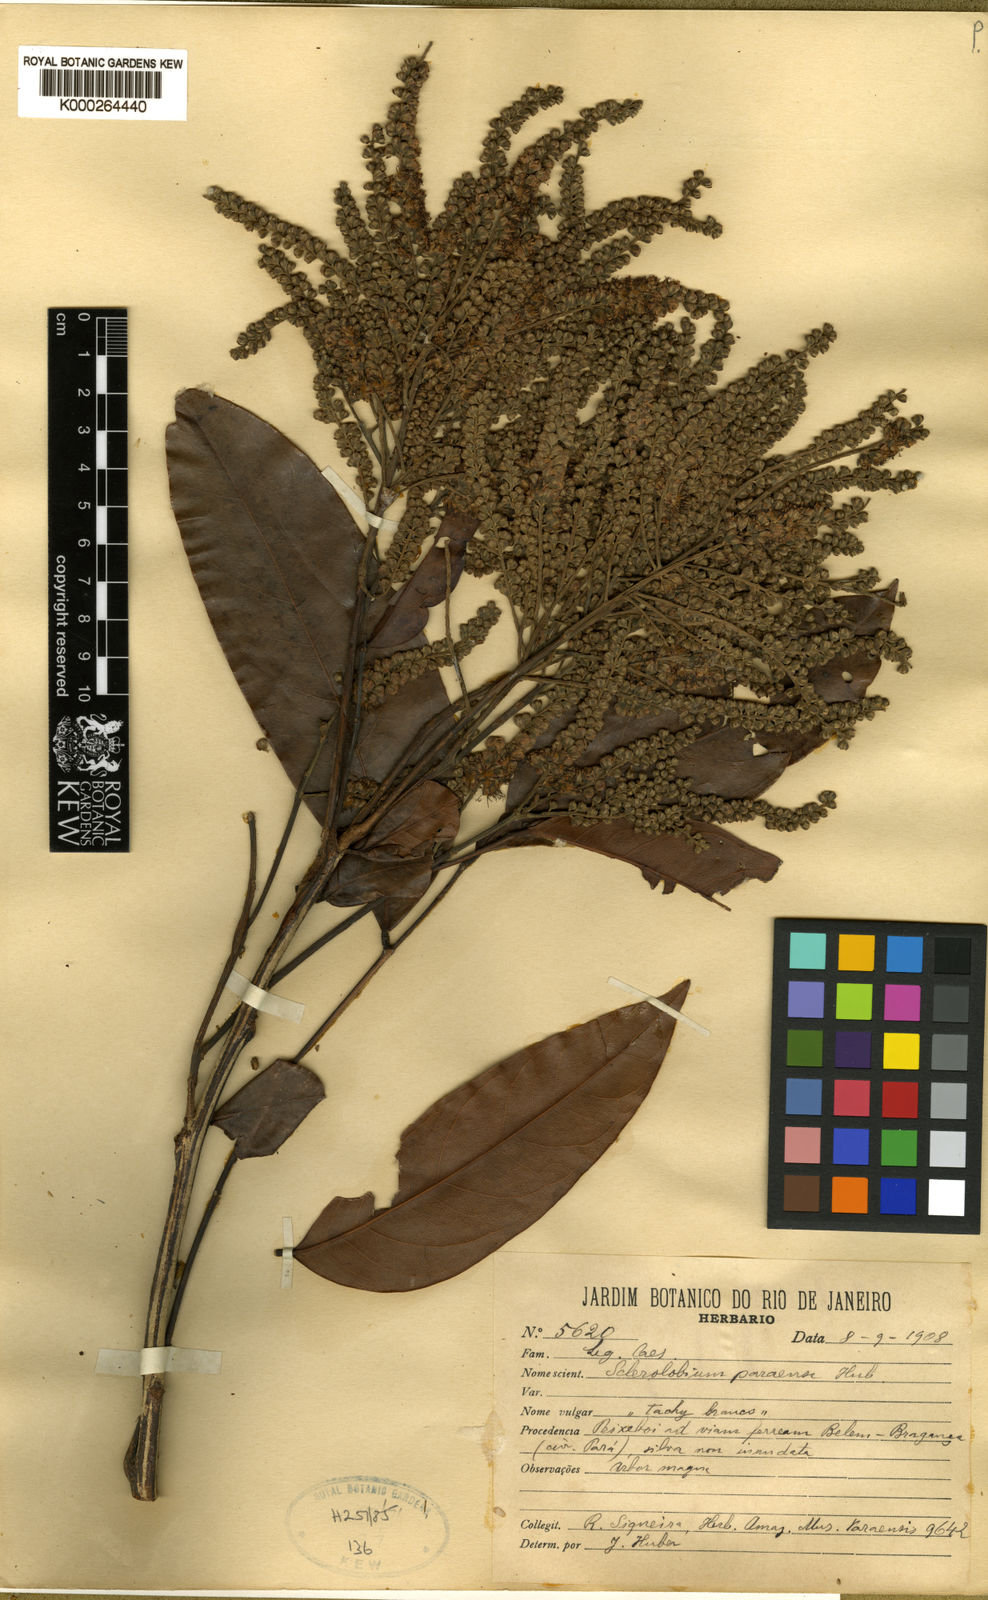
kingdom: Plantae
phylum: Tracheophyta
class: Magnoliopsida
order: Fabales
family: Fabaceae
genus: Tachigali
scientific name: Tachigali paraensis
